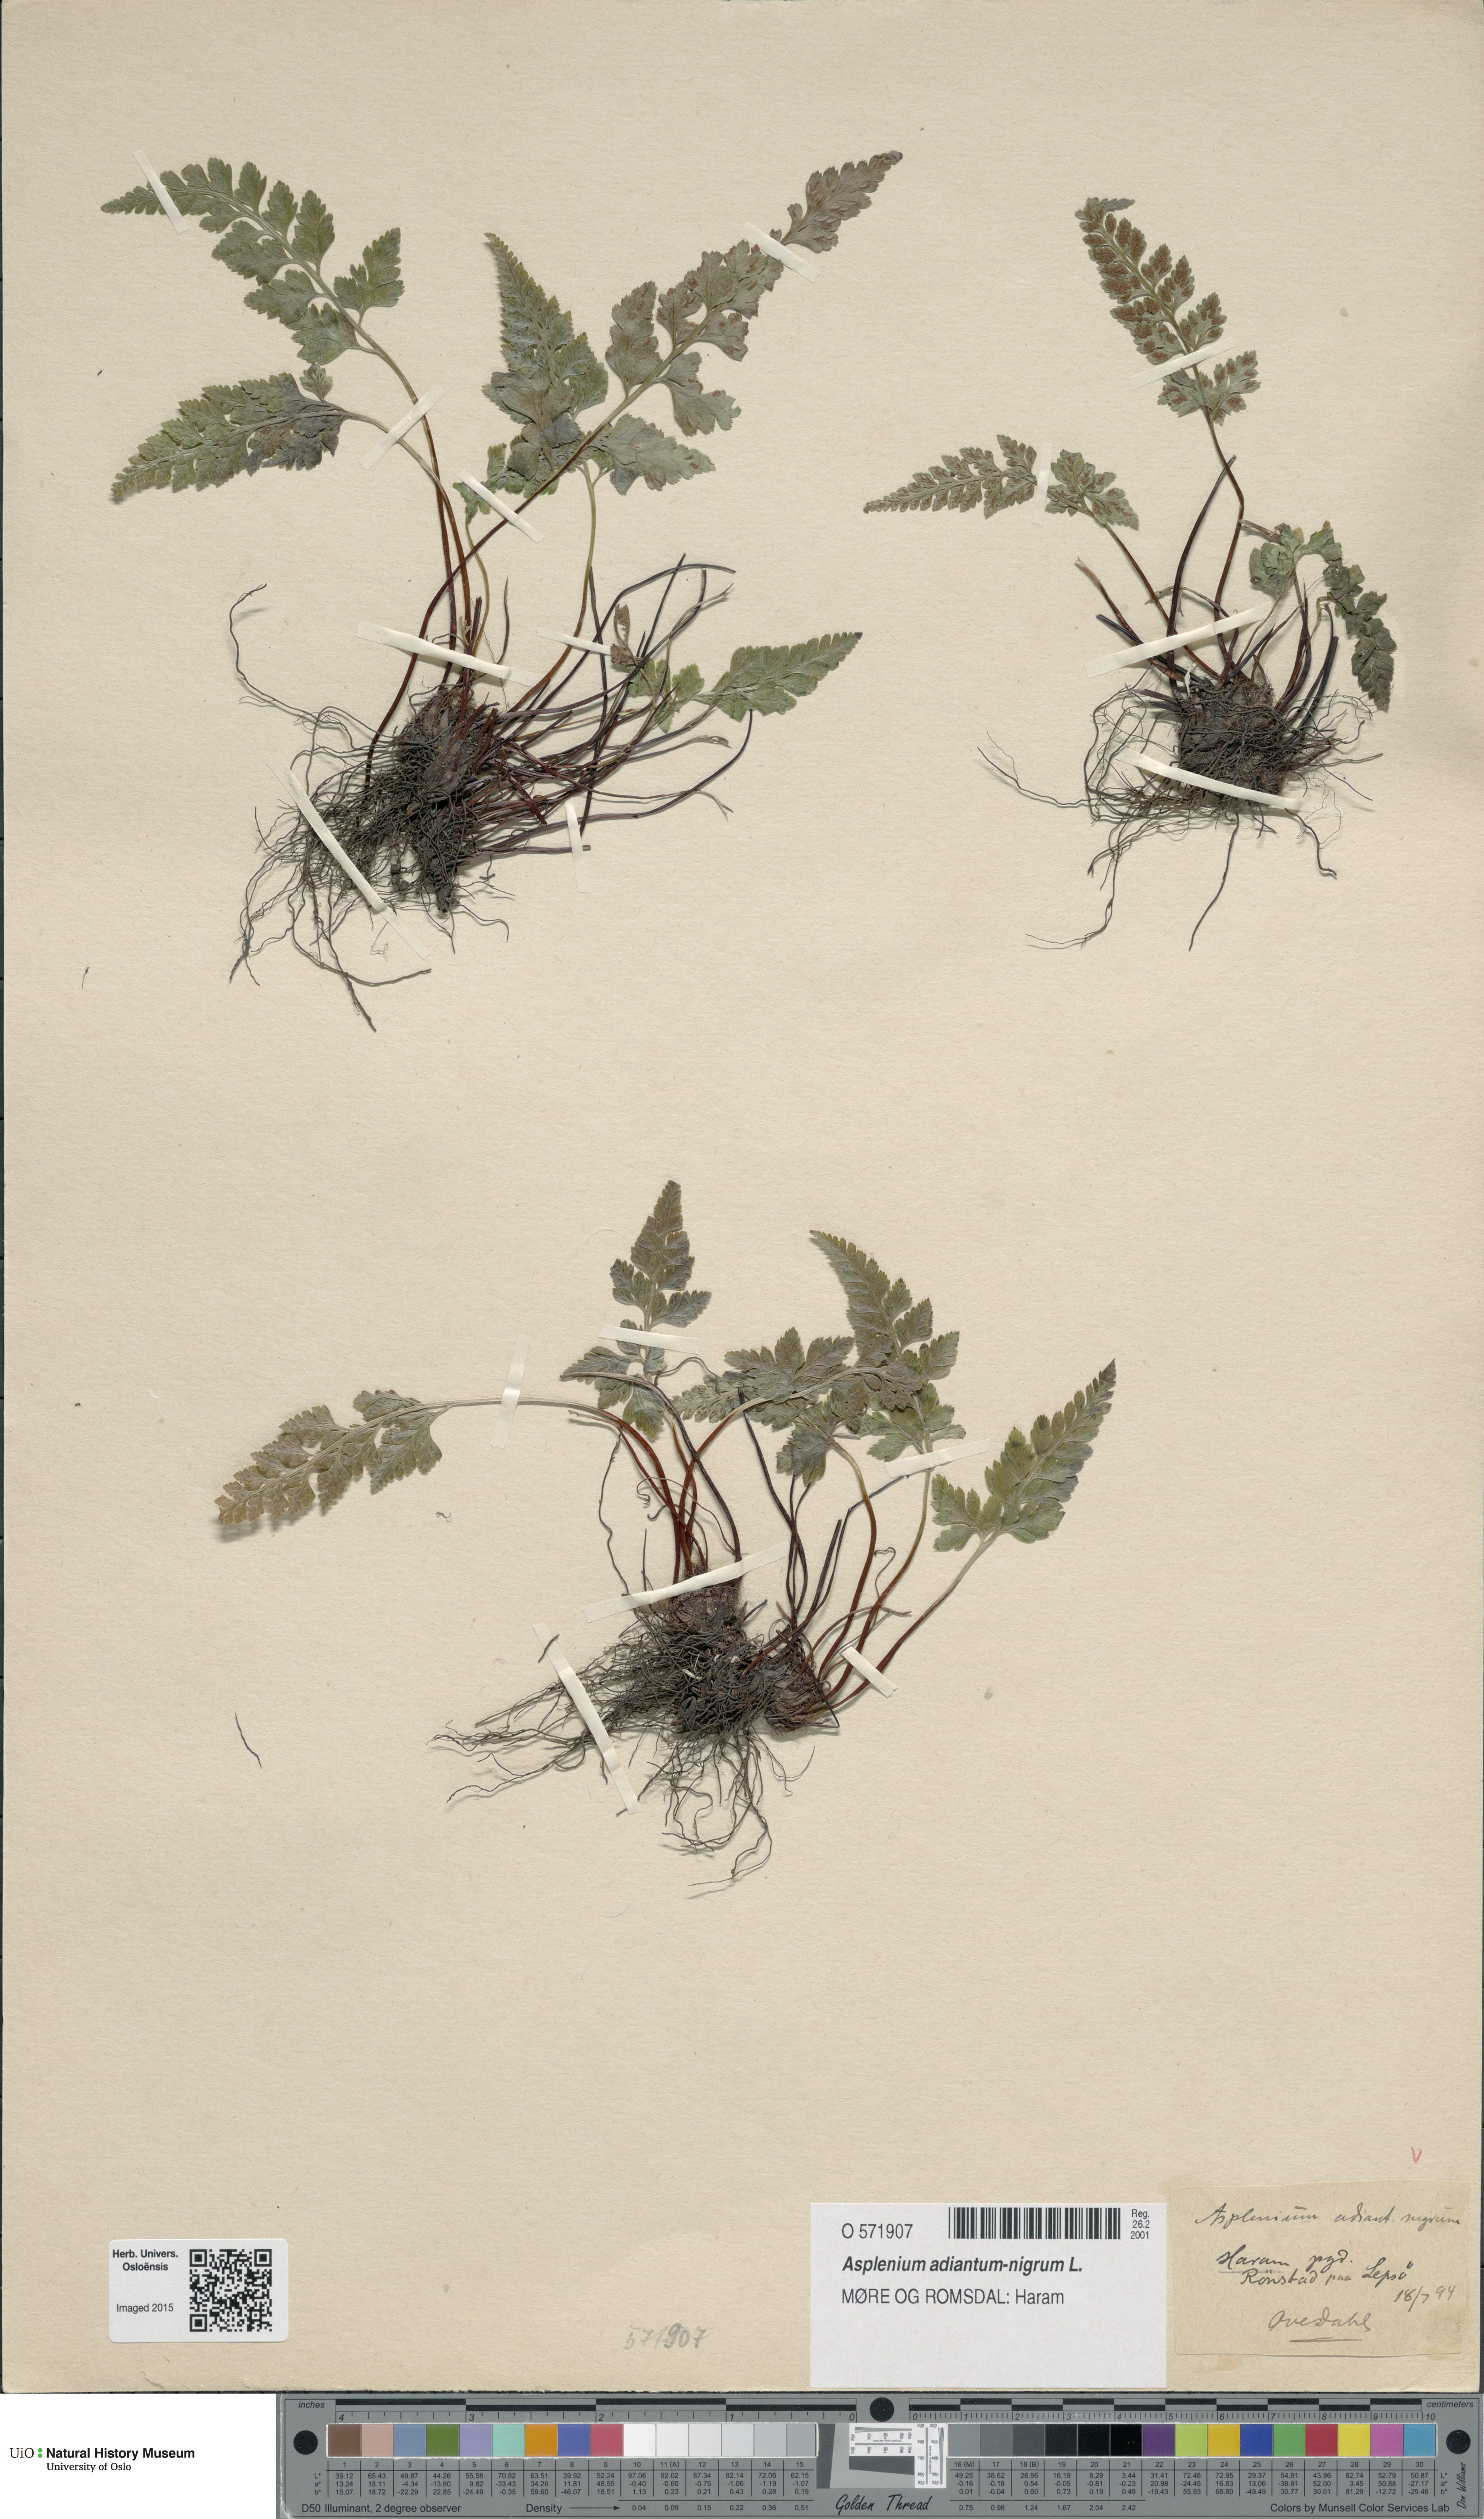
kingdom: Plantae
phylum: Tracheophyta
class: Polypodiopsida
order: Polypodiales
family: Aspleniaceae
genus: Asplenium
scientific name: Asplenium adiantum-nigrum
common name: Black spleenwort
